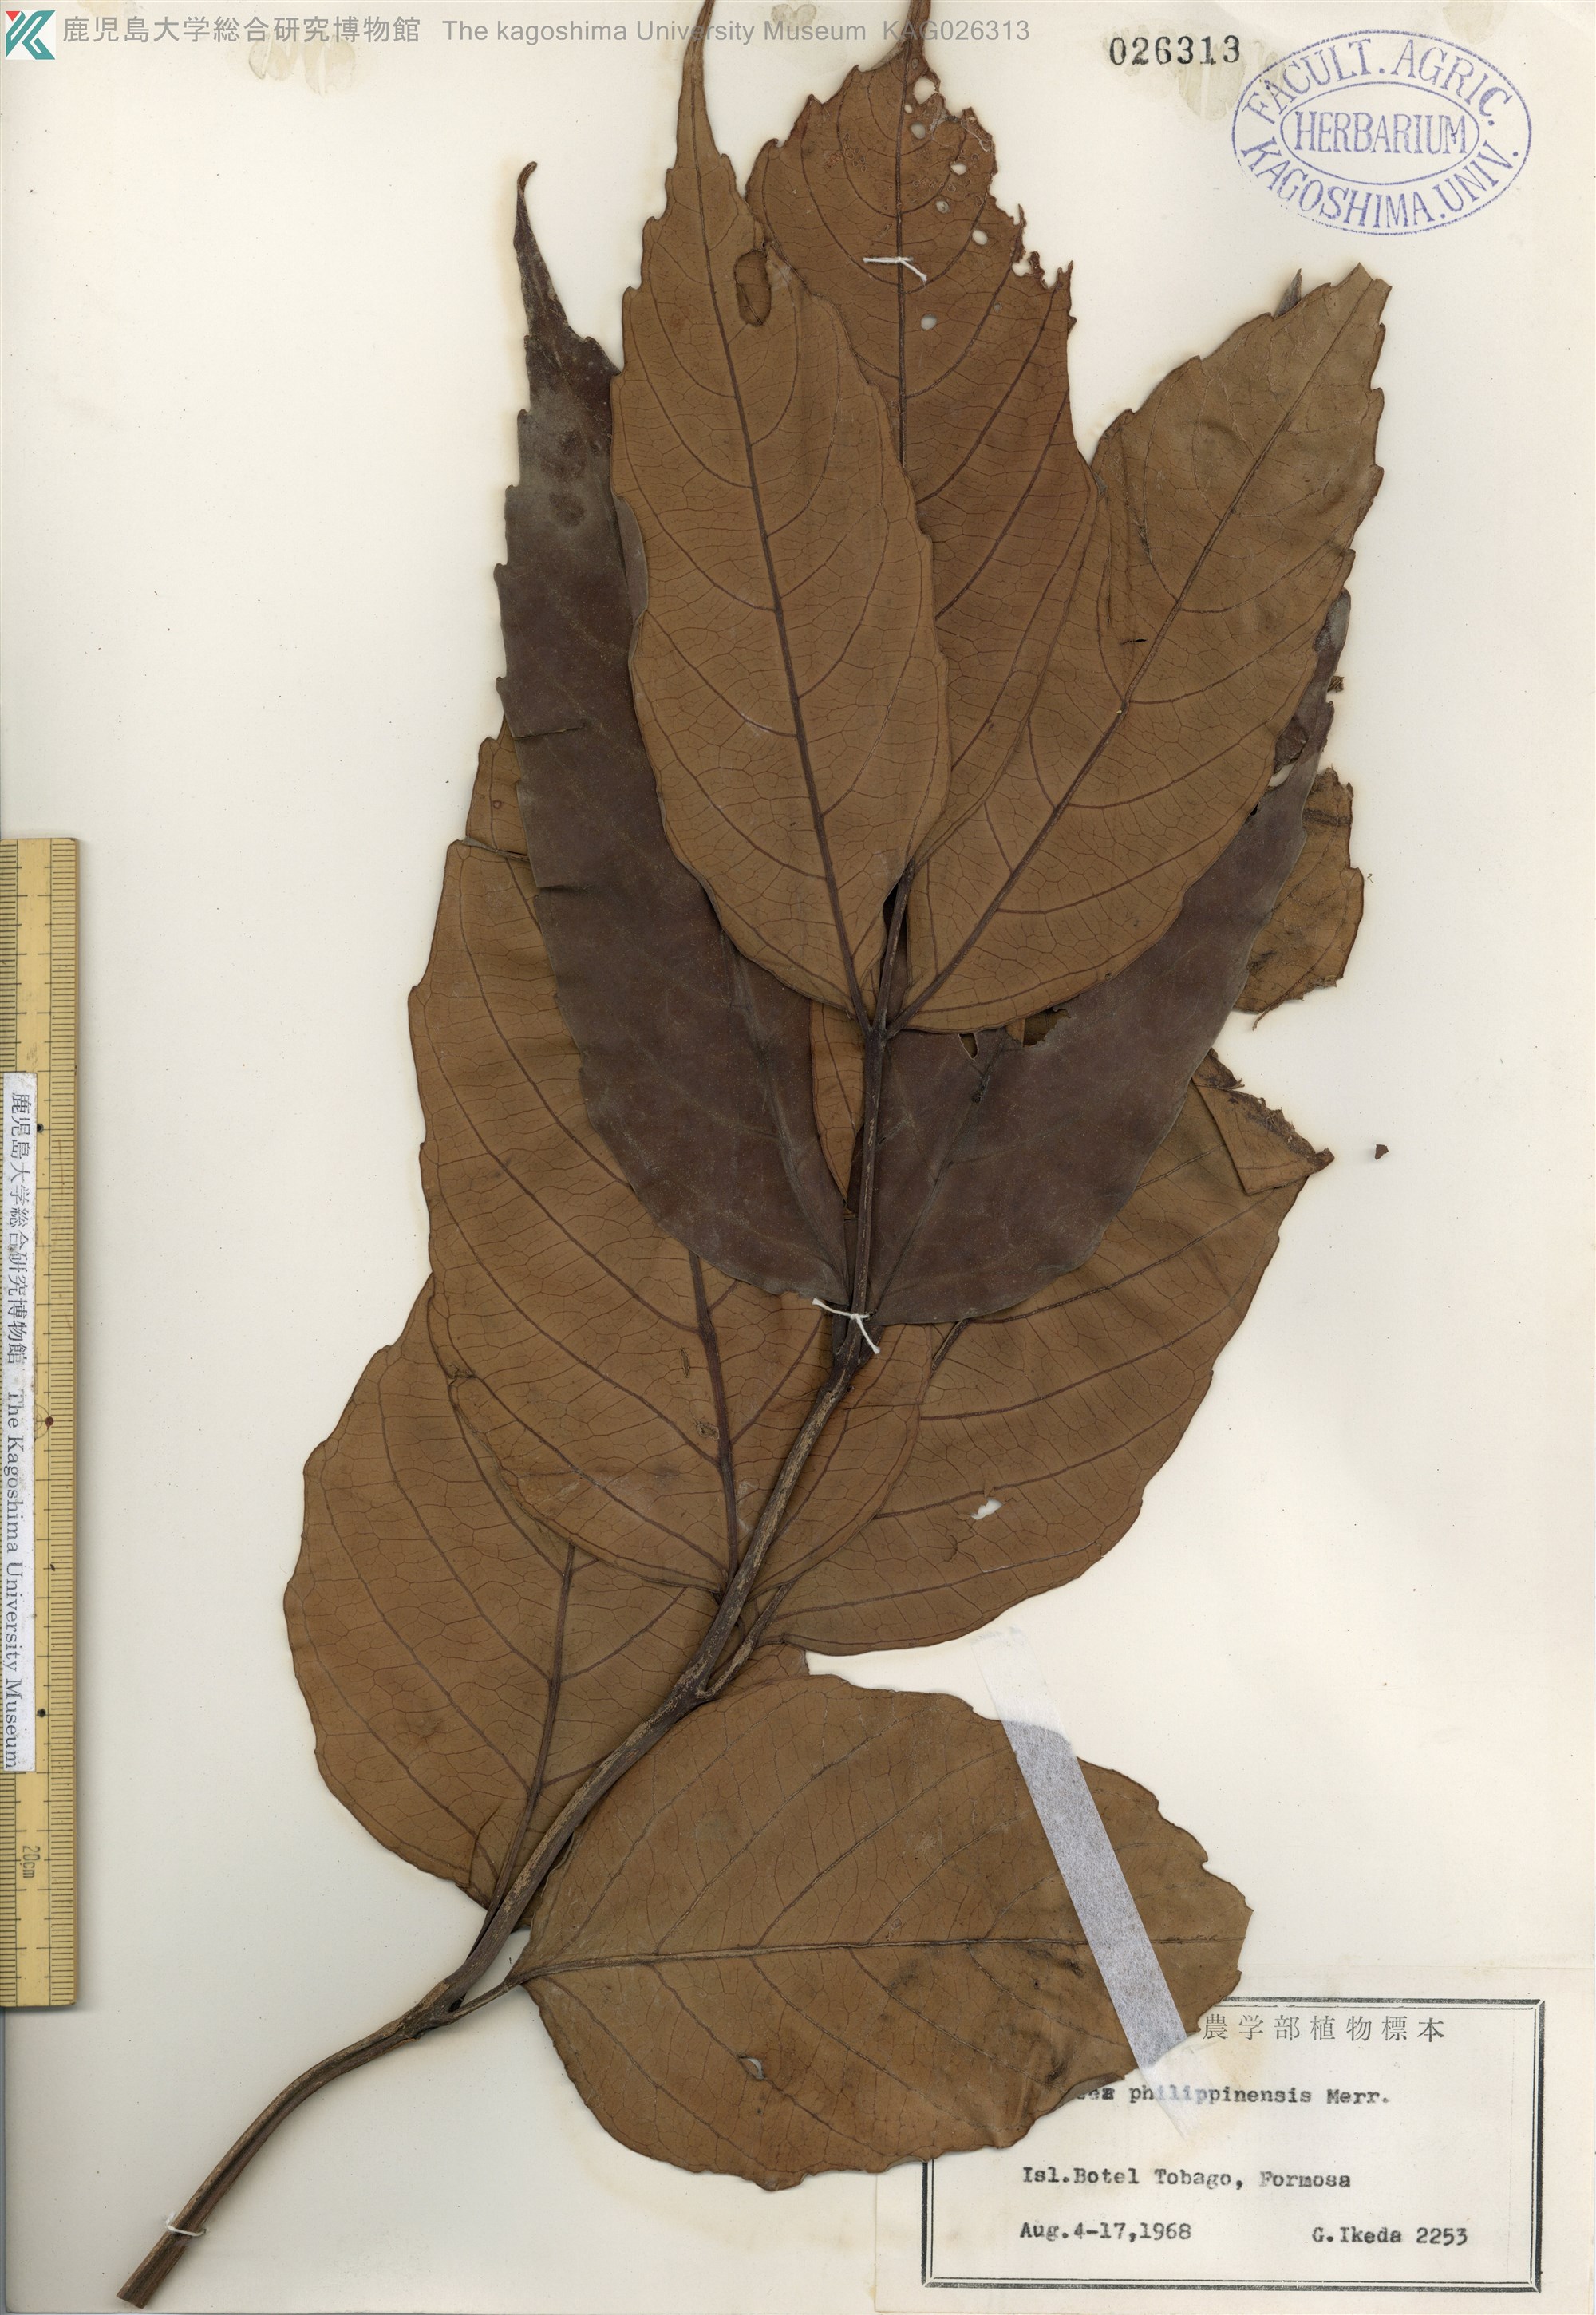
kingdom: Plantae
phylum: Tracheophyta
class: Magnoliopsida
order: Vitales
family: Vitaceae
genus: Leea
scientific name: Leea philippinensis
